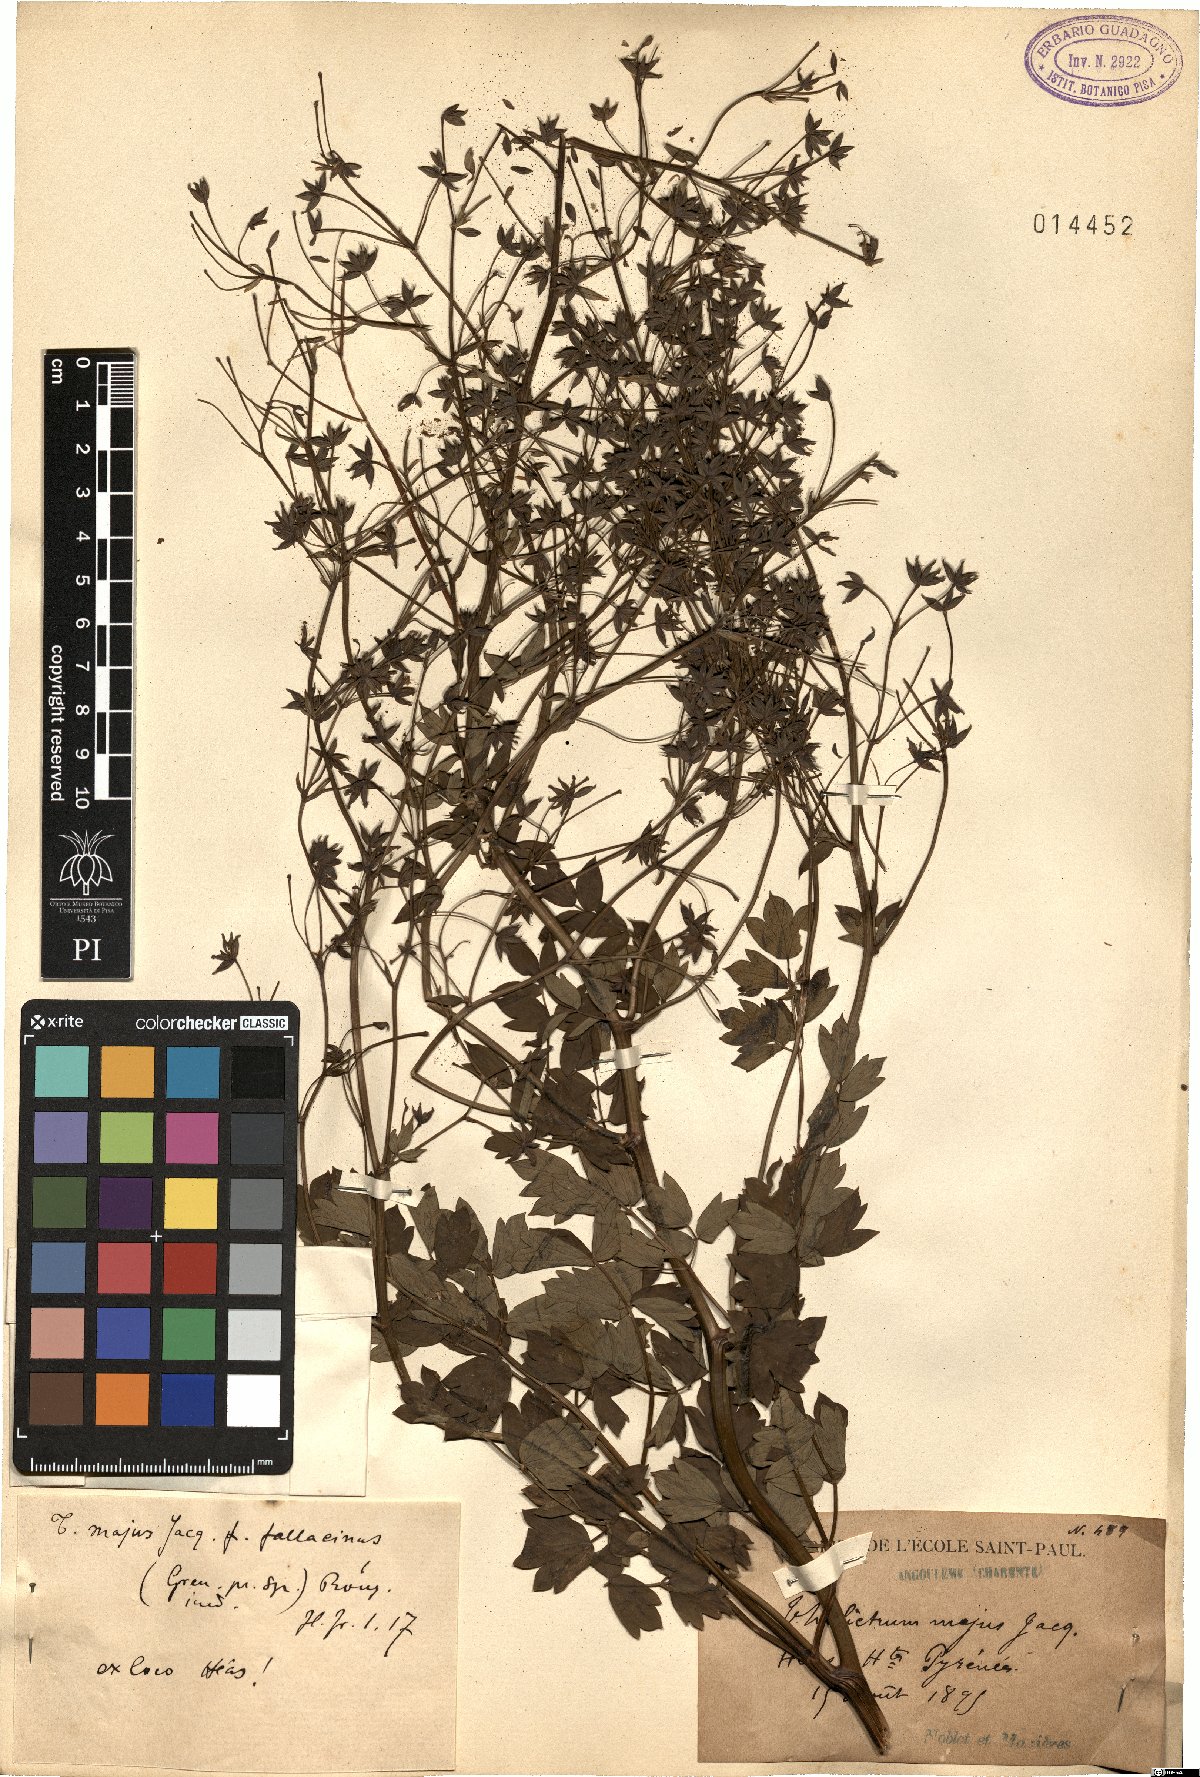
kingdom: Plantae
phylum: Tracheophyta
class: Magnoliopsida
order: Ranunculales
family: Ranunculaceae
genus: Thalictrum
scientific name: Thalictrum minus
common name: Lesser meadow-rue
